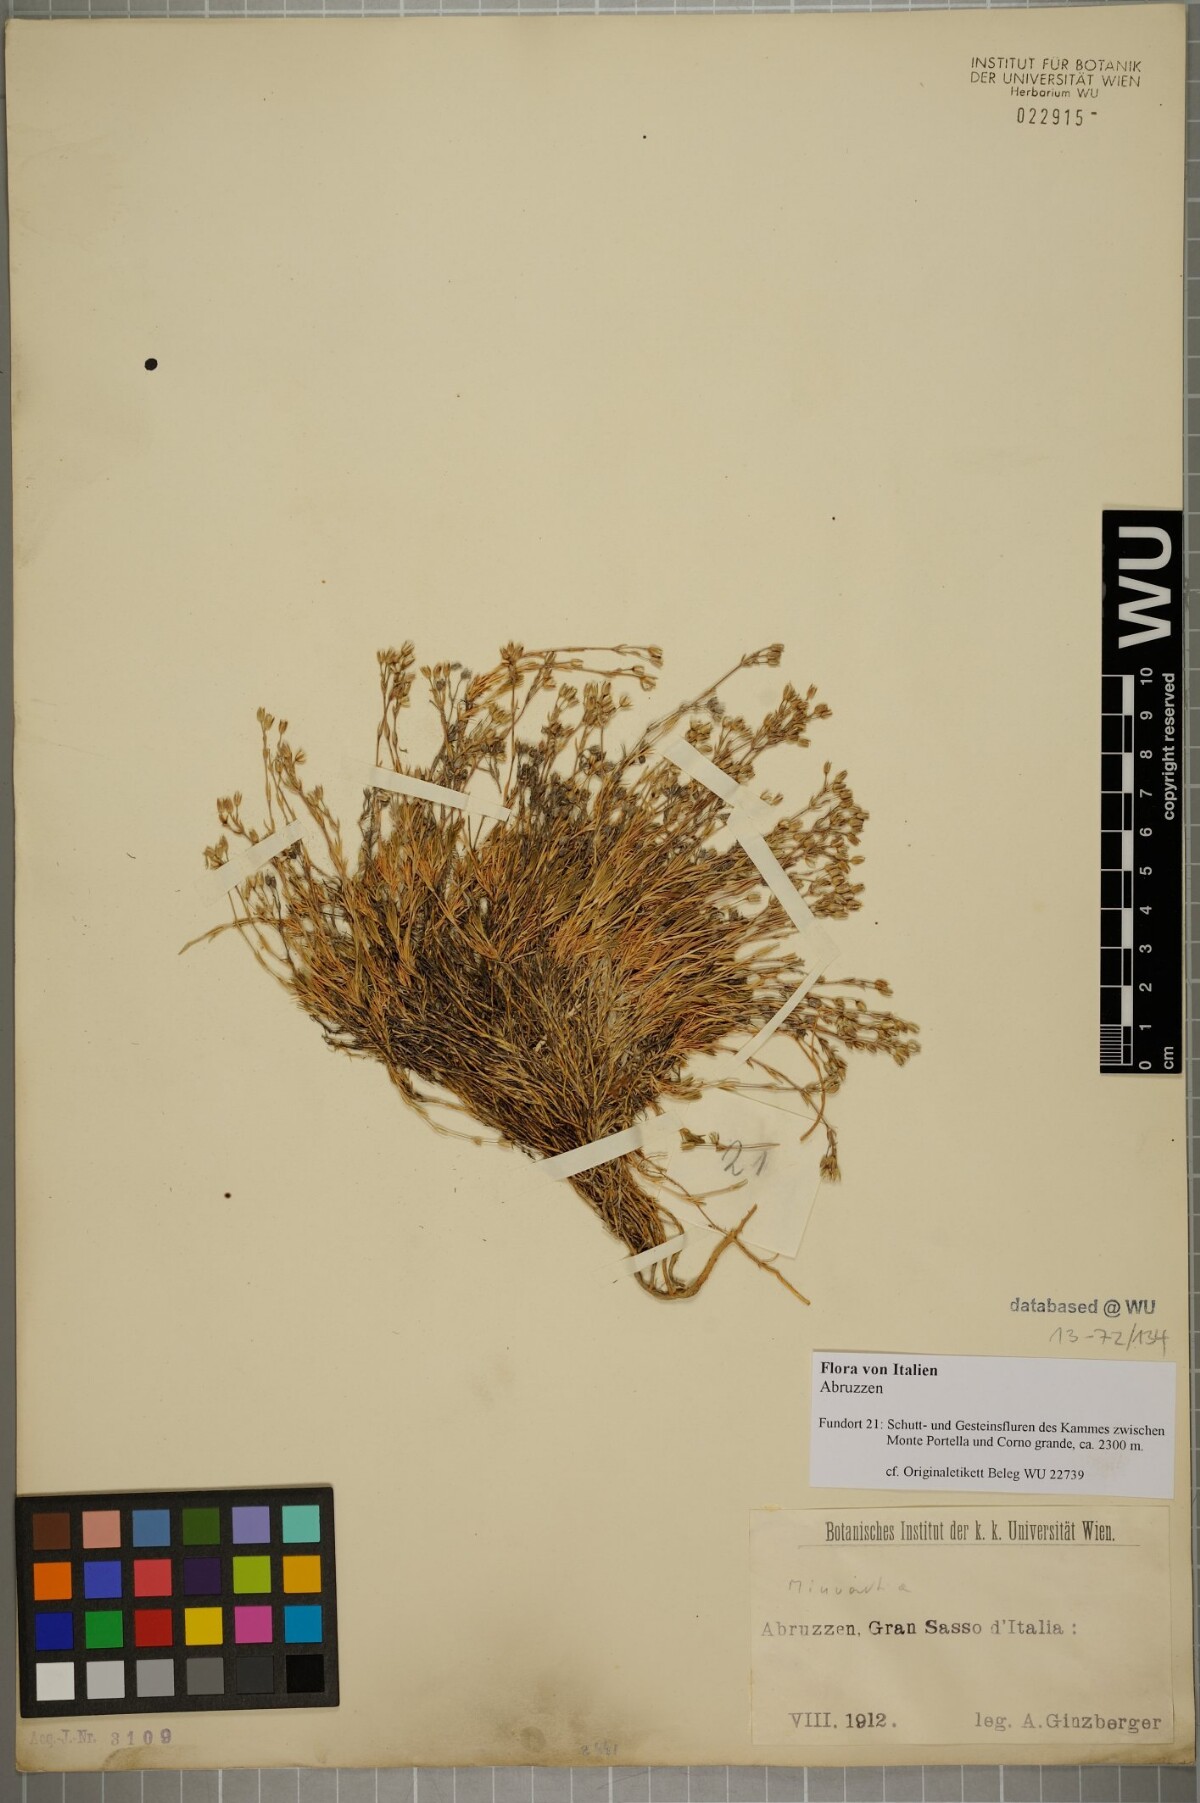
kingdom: Plantae
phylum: Tracheophyta
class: Magnoliopsida
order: Caryophyllales
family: Caryophyllaceae
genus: Sabulina
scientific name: Sabulina verna
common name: Spring sandwort
